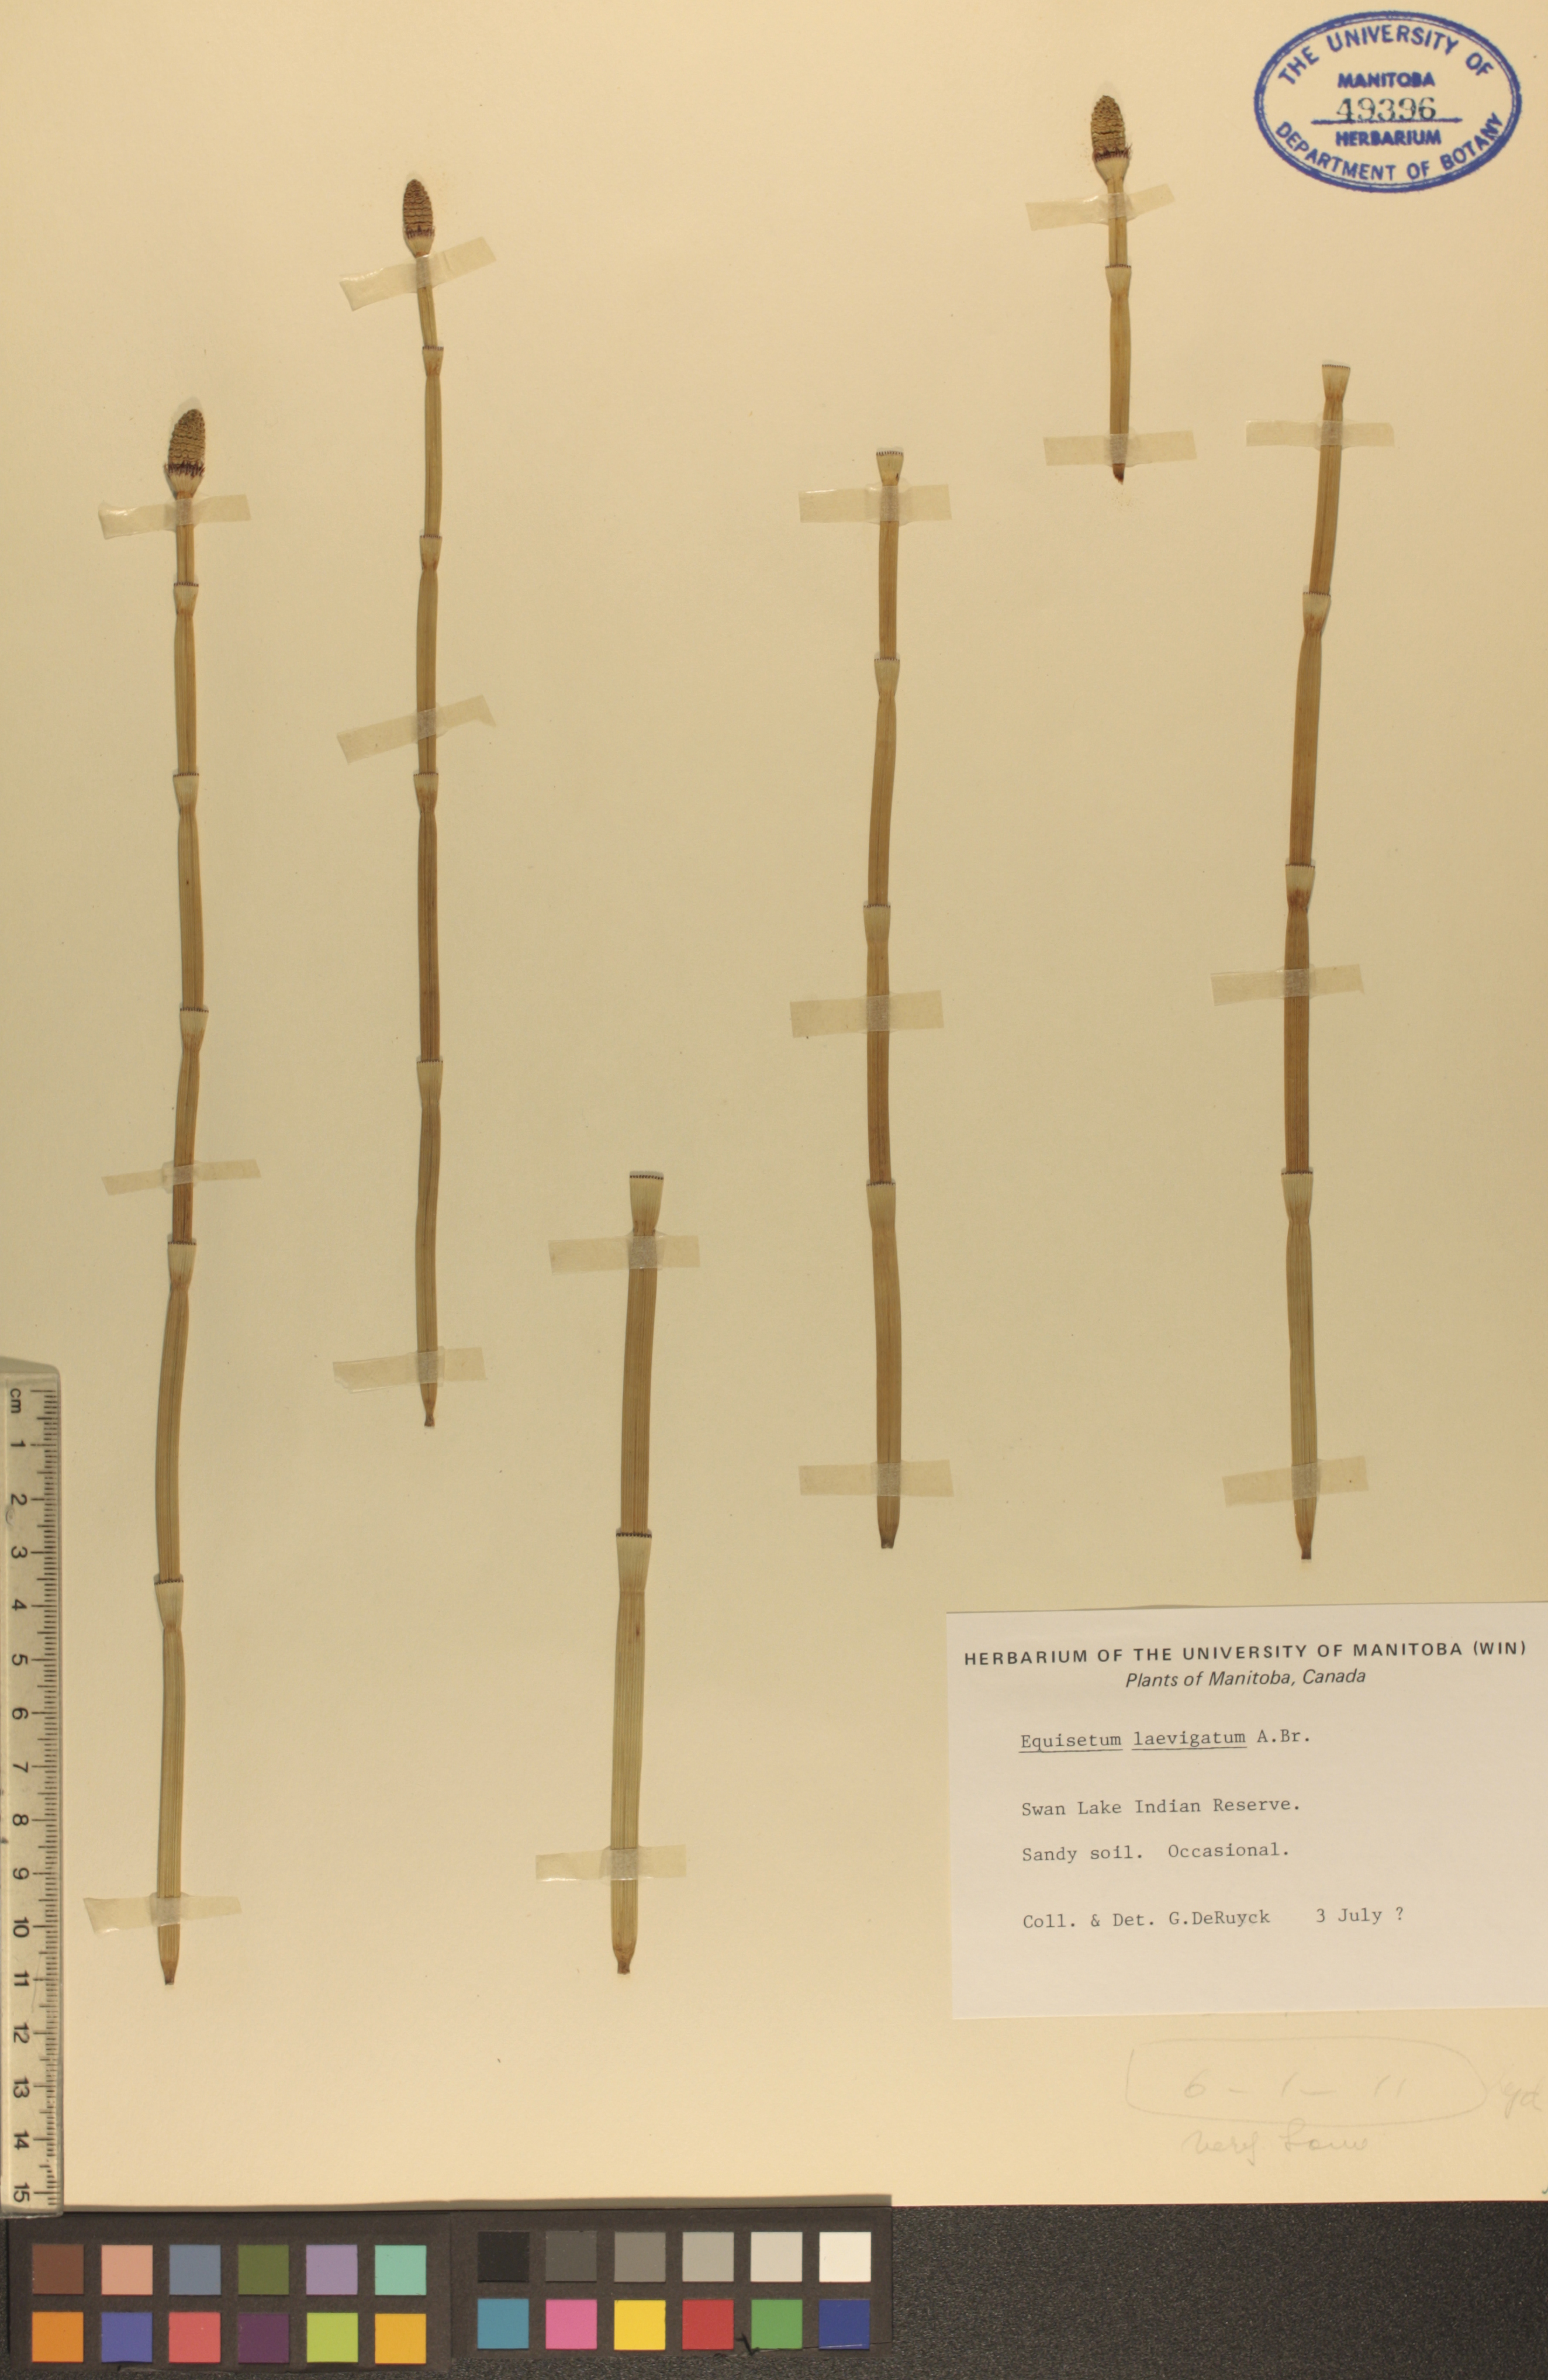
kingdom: Plantae
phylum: Tracheophyta
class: Polypodiopsida
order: Equisetales
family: Equisetaceae
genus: Equisetum
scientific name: Equisetum laevigatum
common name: Smooth scouring-rush
